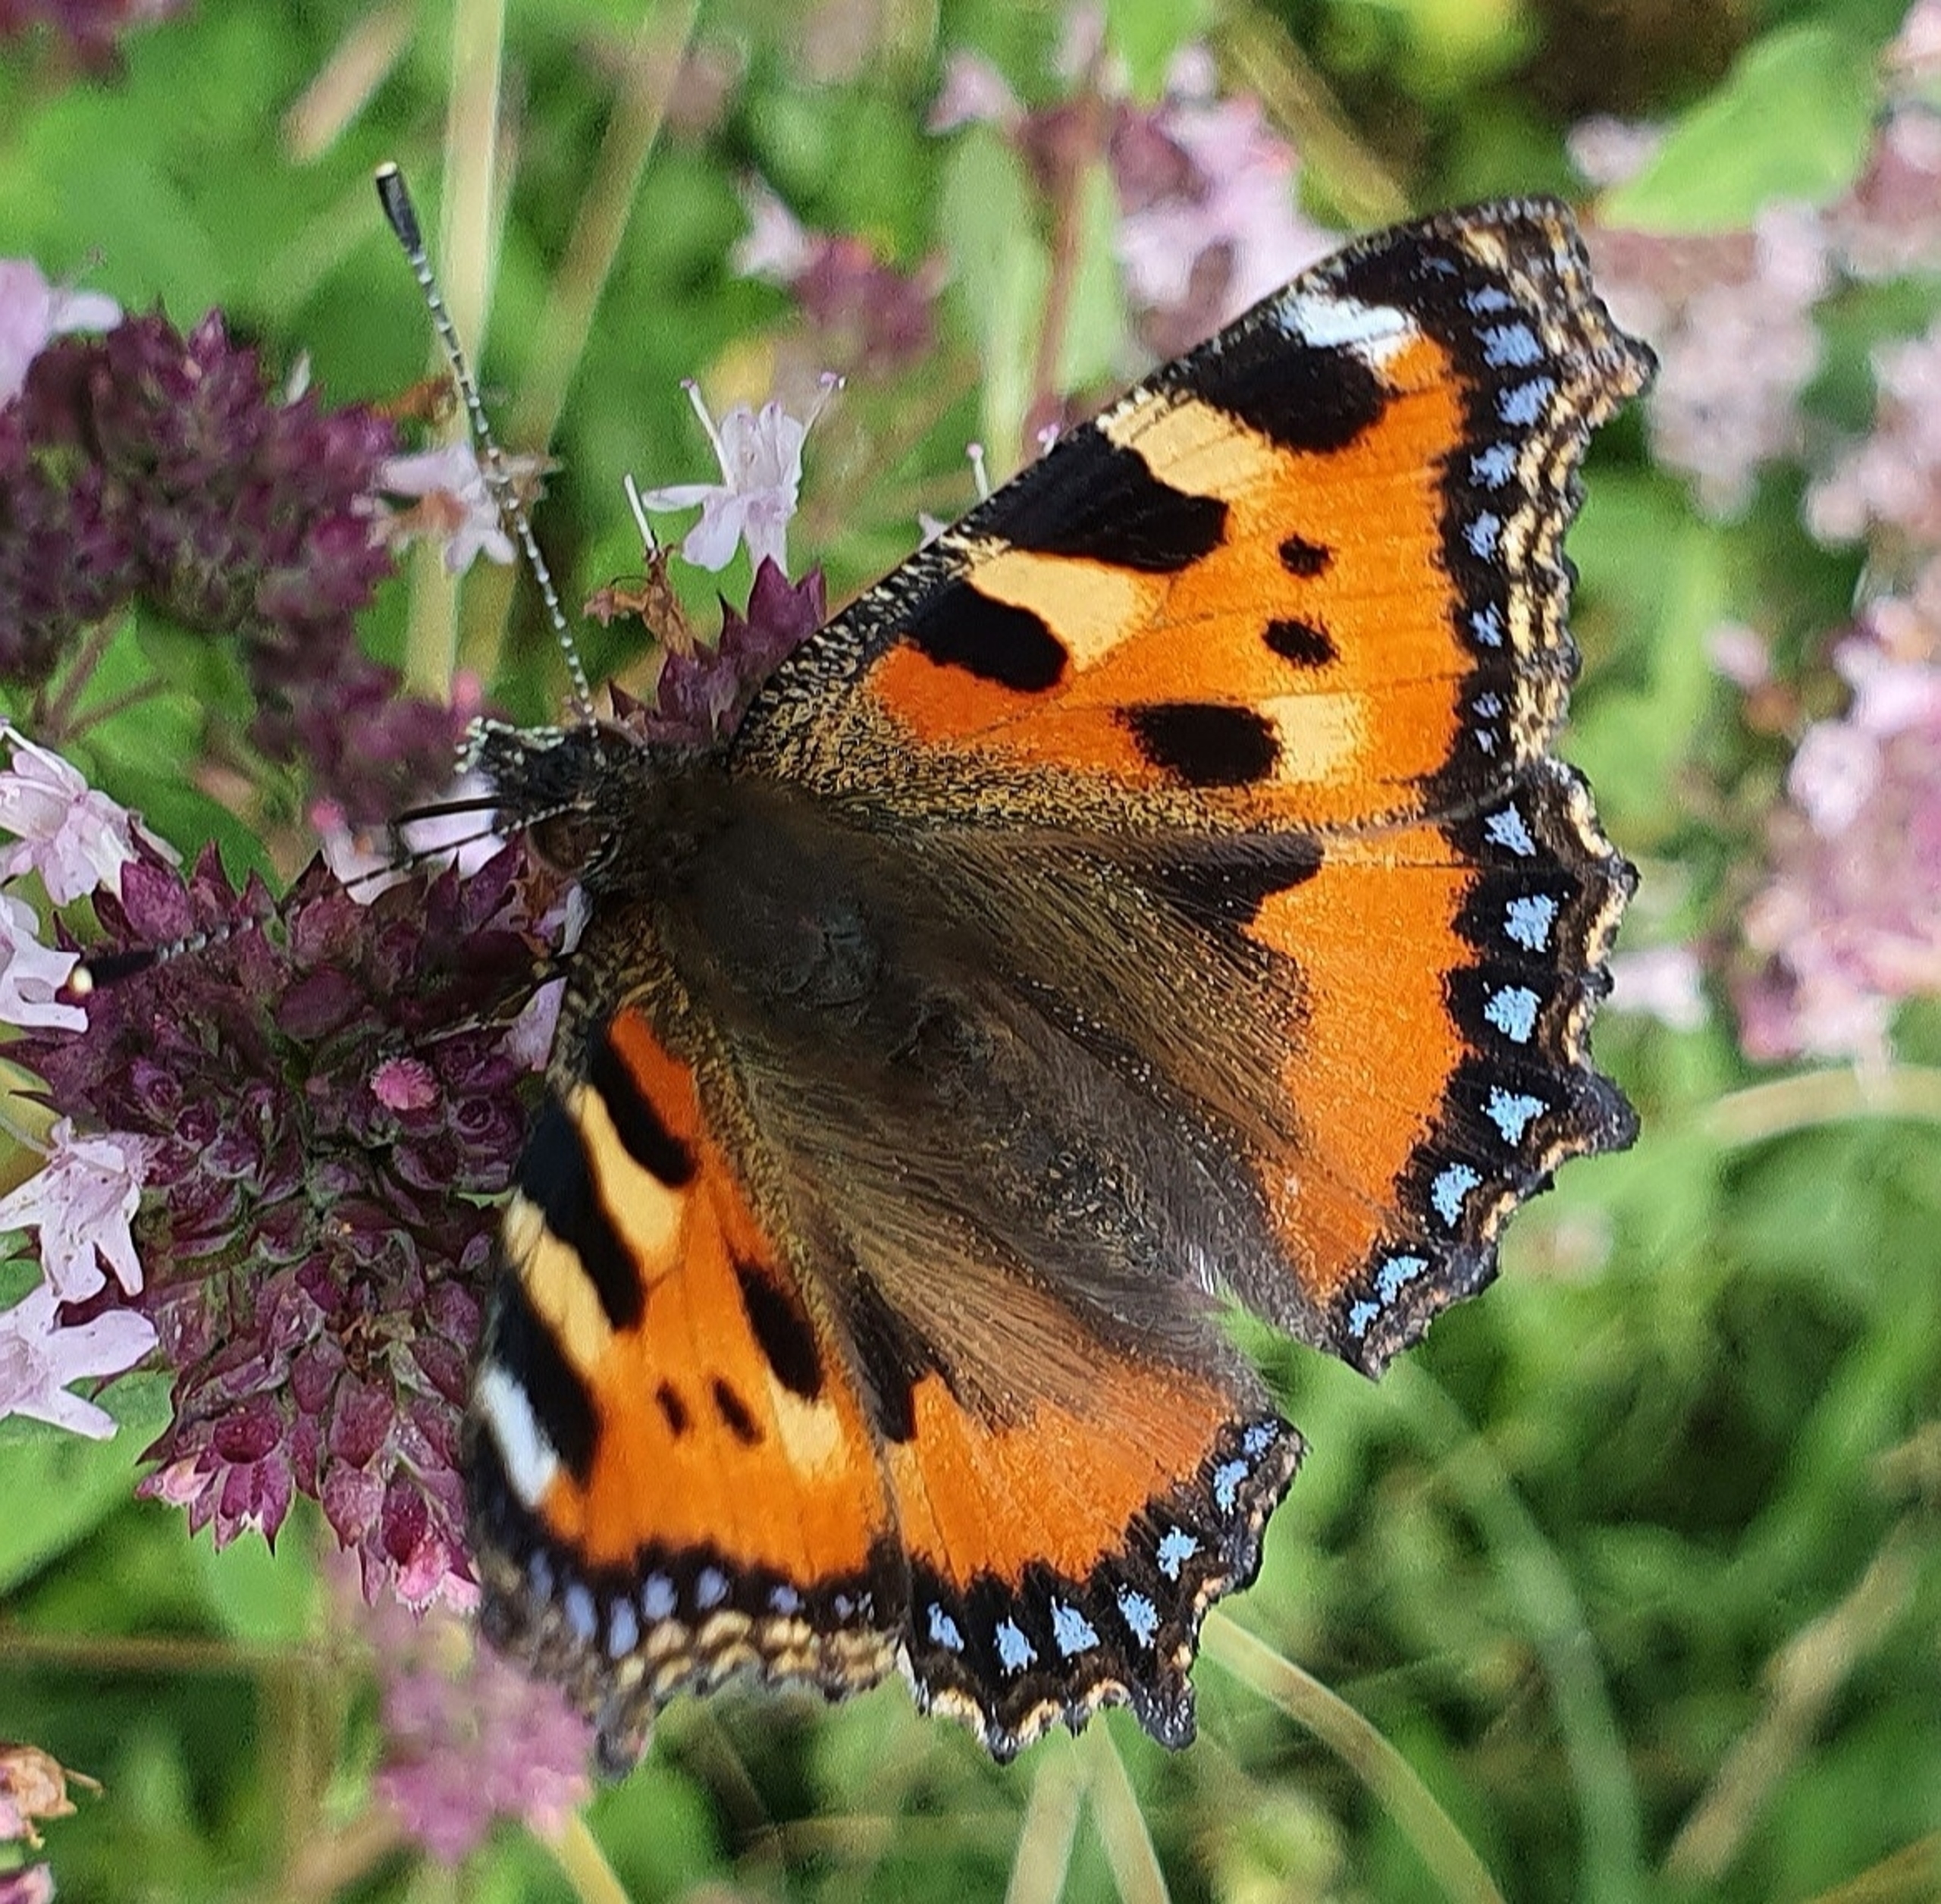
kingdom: Animalia
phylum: Arthropoda
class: Insecta
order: Lepidoptera
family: Nymphalidae
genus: Aglais
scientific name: Aglais urticae
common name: Nældens takvinge
